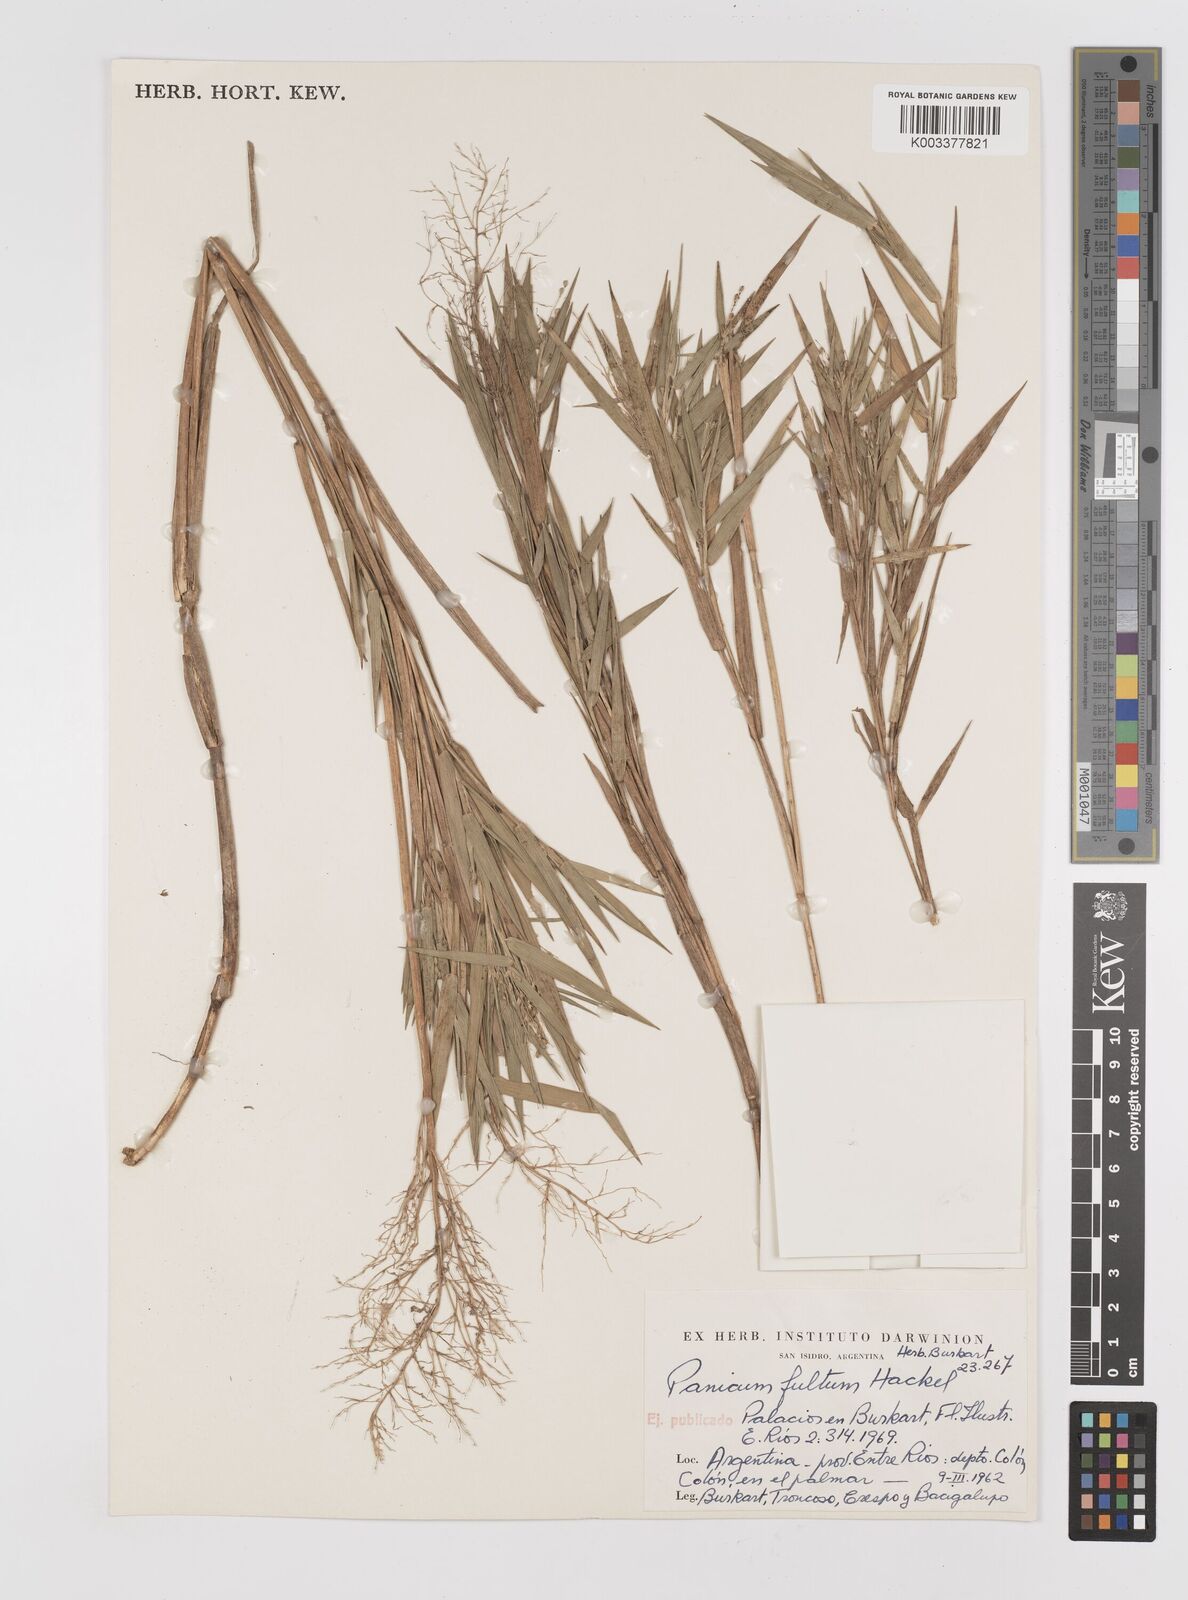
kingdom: Plantae
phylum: Tracheophyta
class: Liliopsida
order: Poales
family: Poaceae
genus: Dichanthelium
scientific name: Dichanthelium sabulorum
